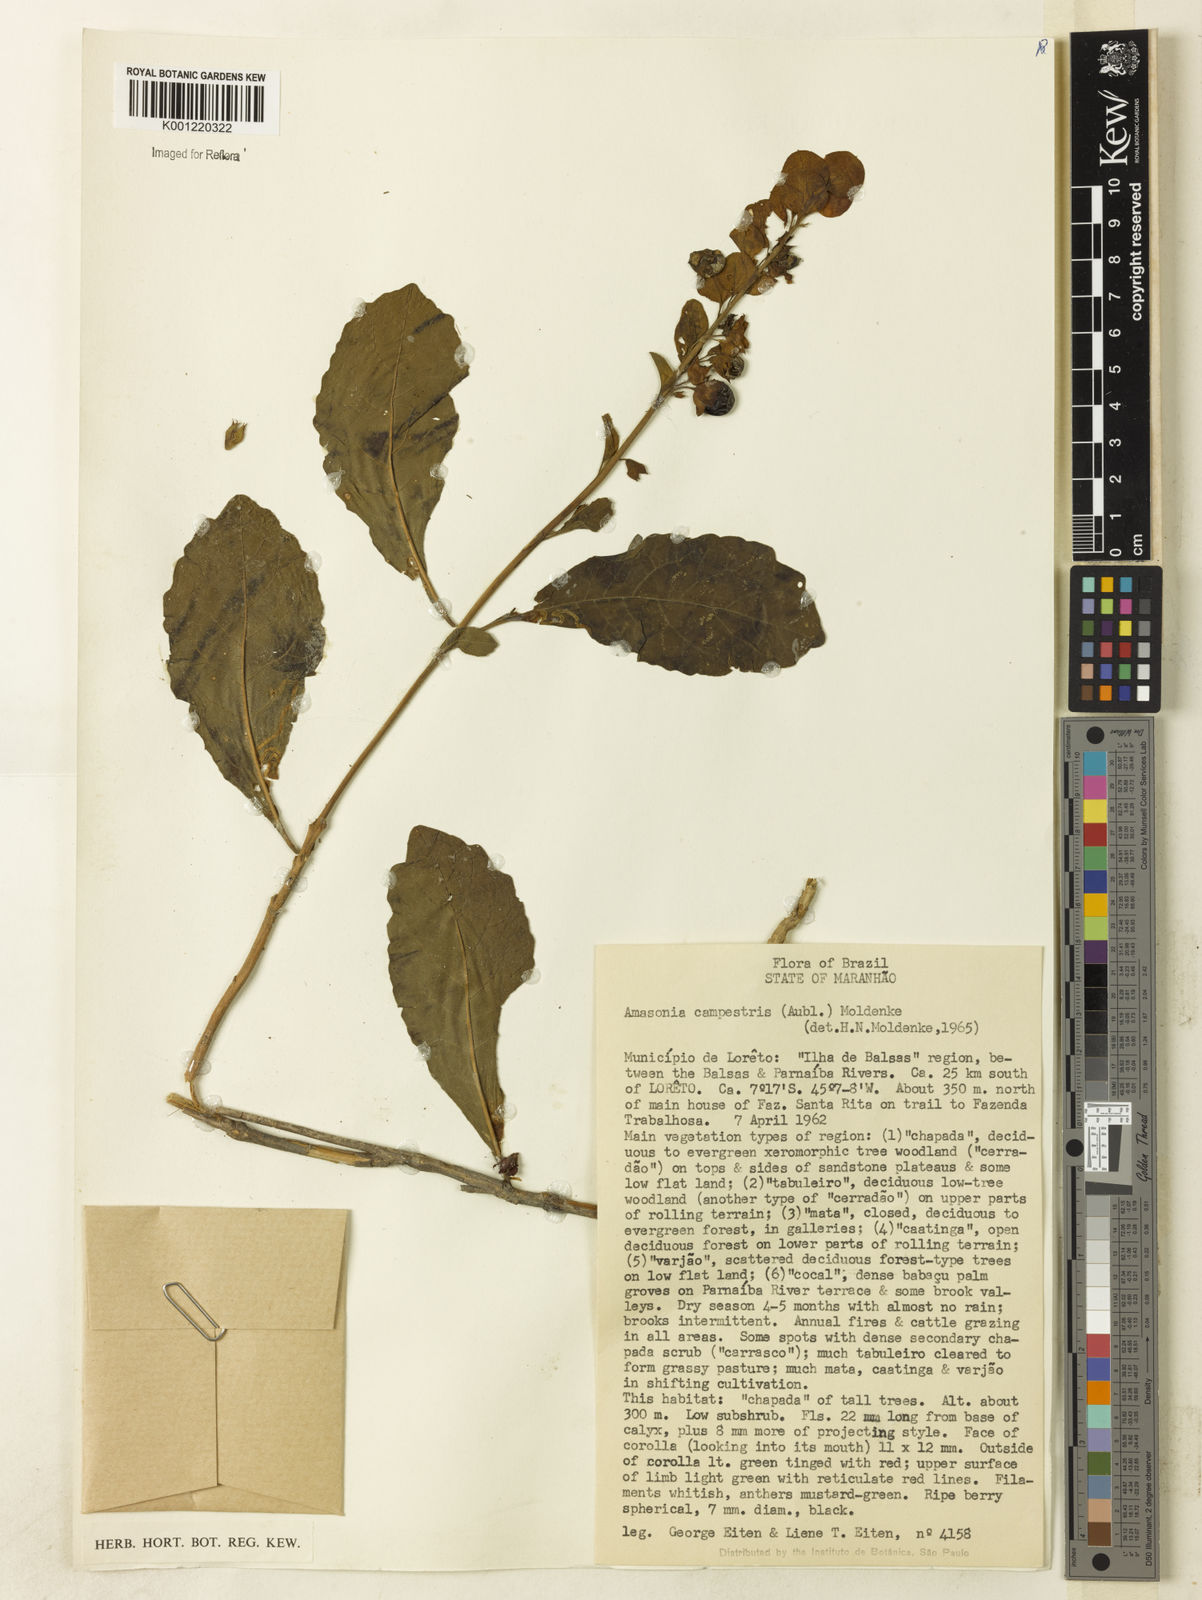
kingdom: Plantae
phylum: Tracheophyta
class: Magnoliopsida
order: Lamiales
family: Lamiaceae
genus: Amasonia
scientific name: Amasonia campestris
